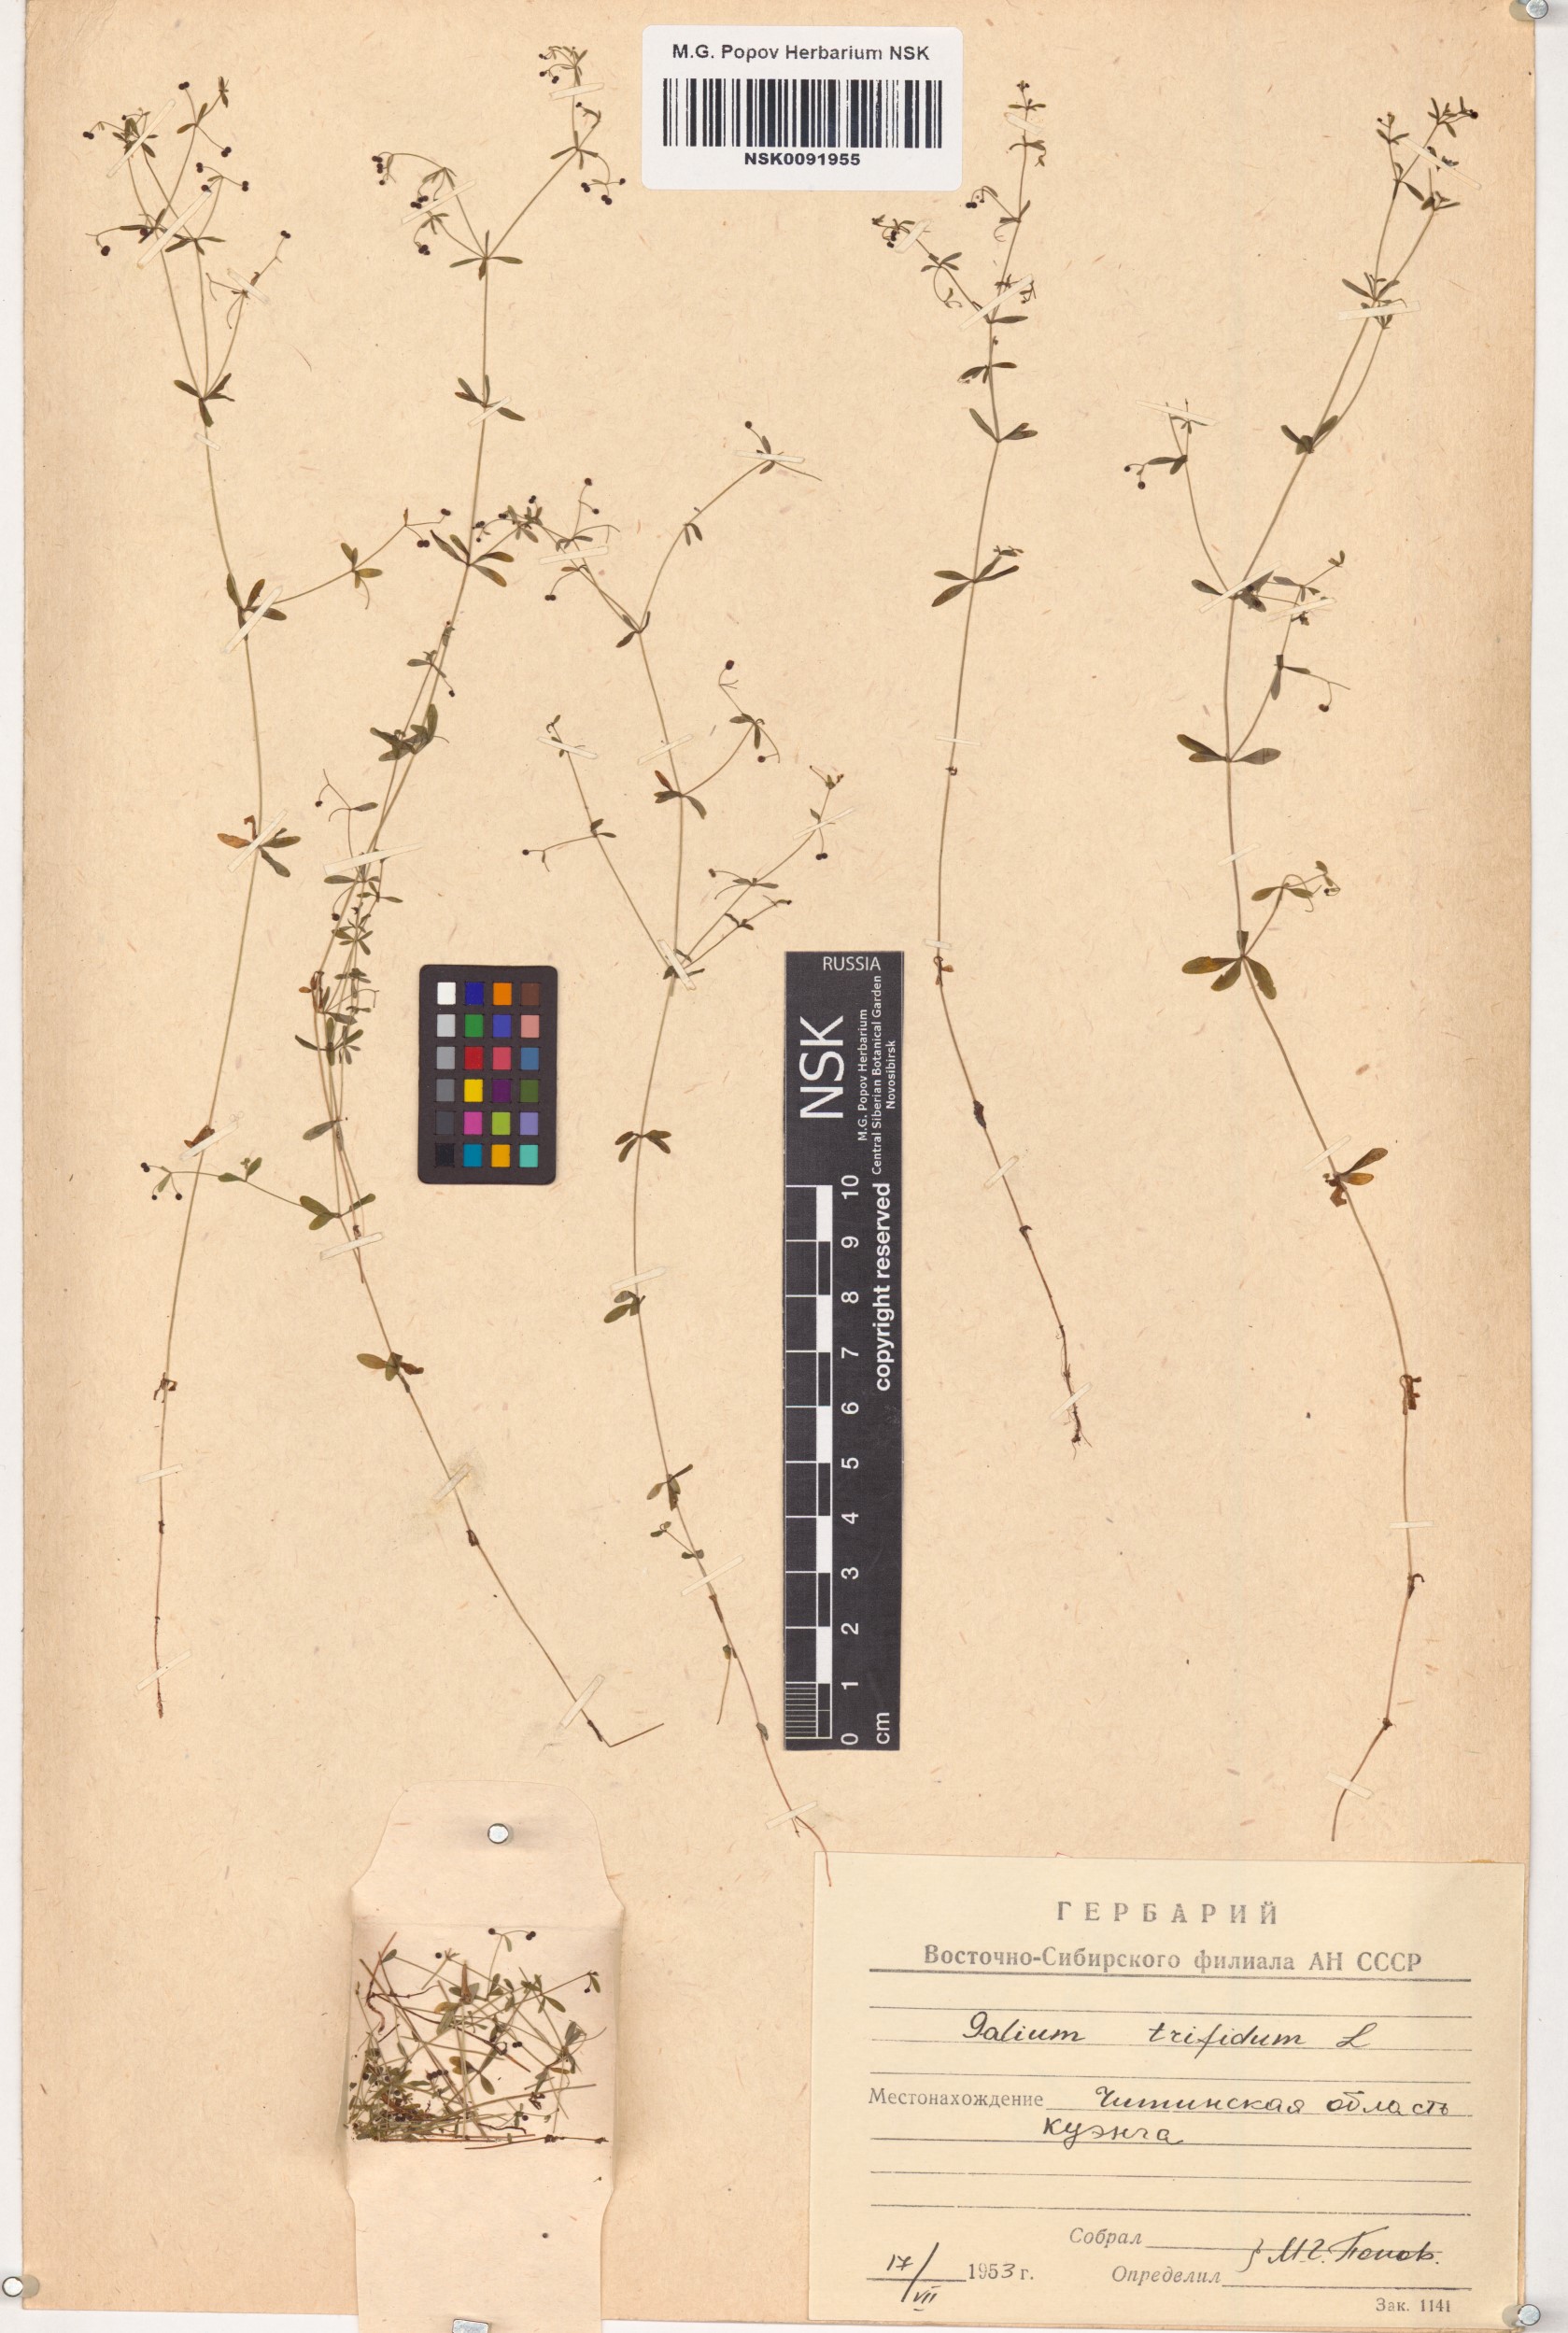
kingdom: Plantae
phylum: Tracheophyta
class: Magnoliopsida
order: Gentianales
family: Rubiaceae
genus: Galium
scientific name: Galium trifidum
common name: Small bedstraw
